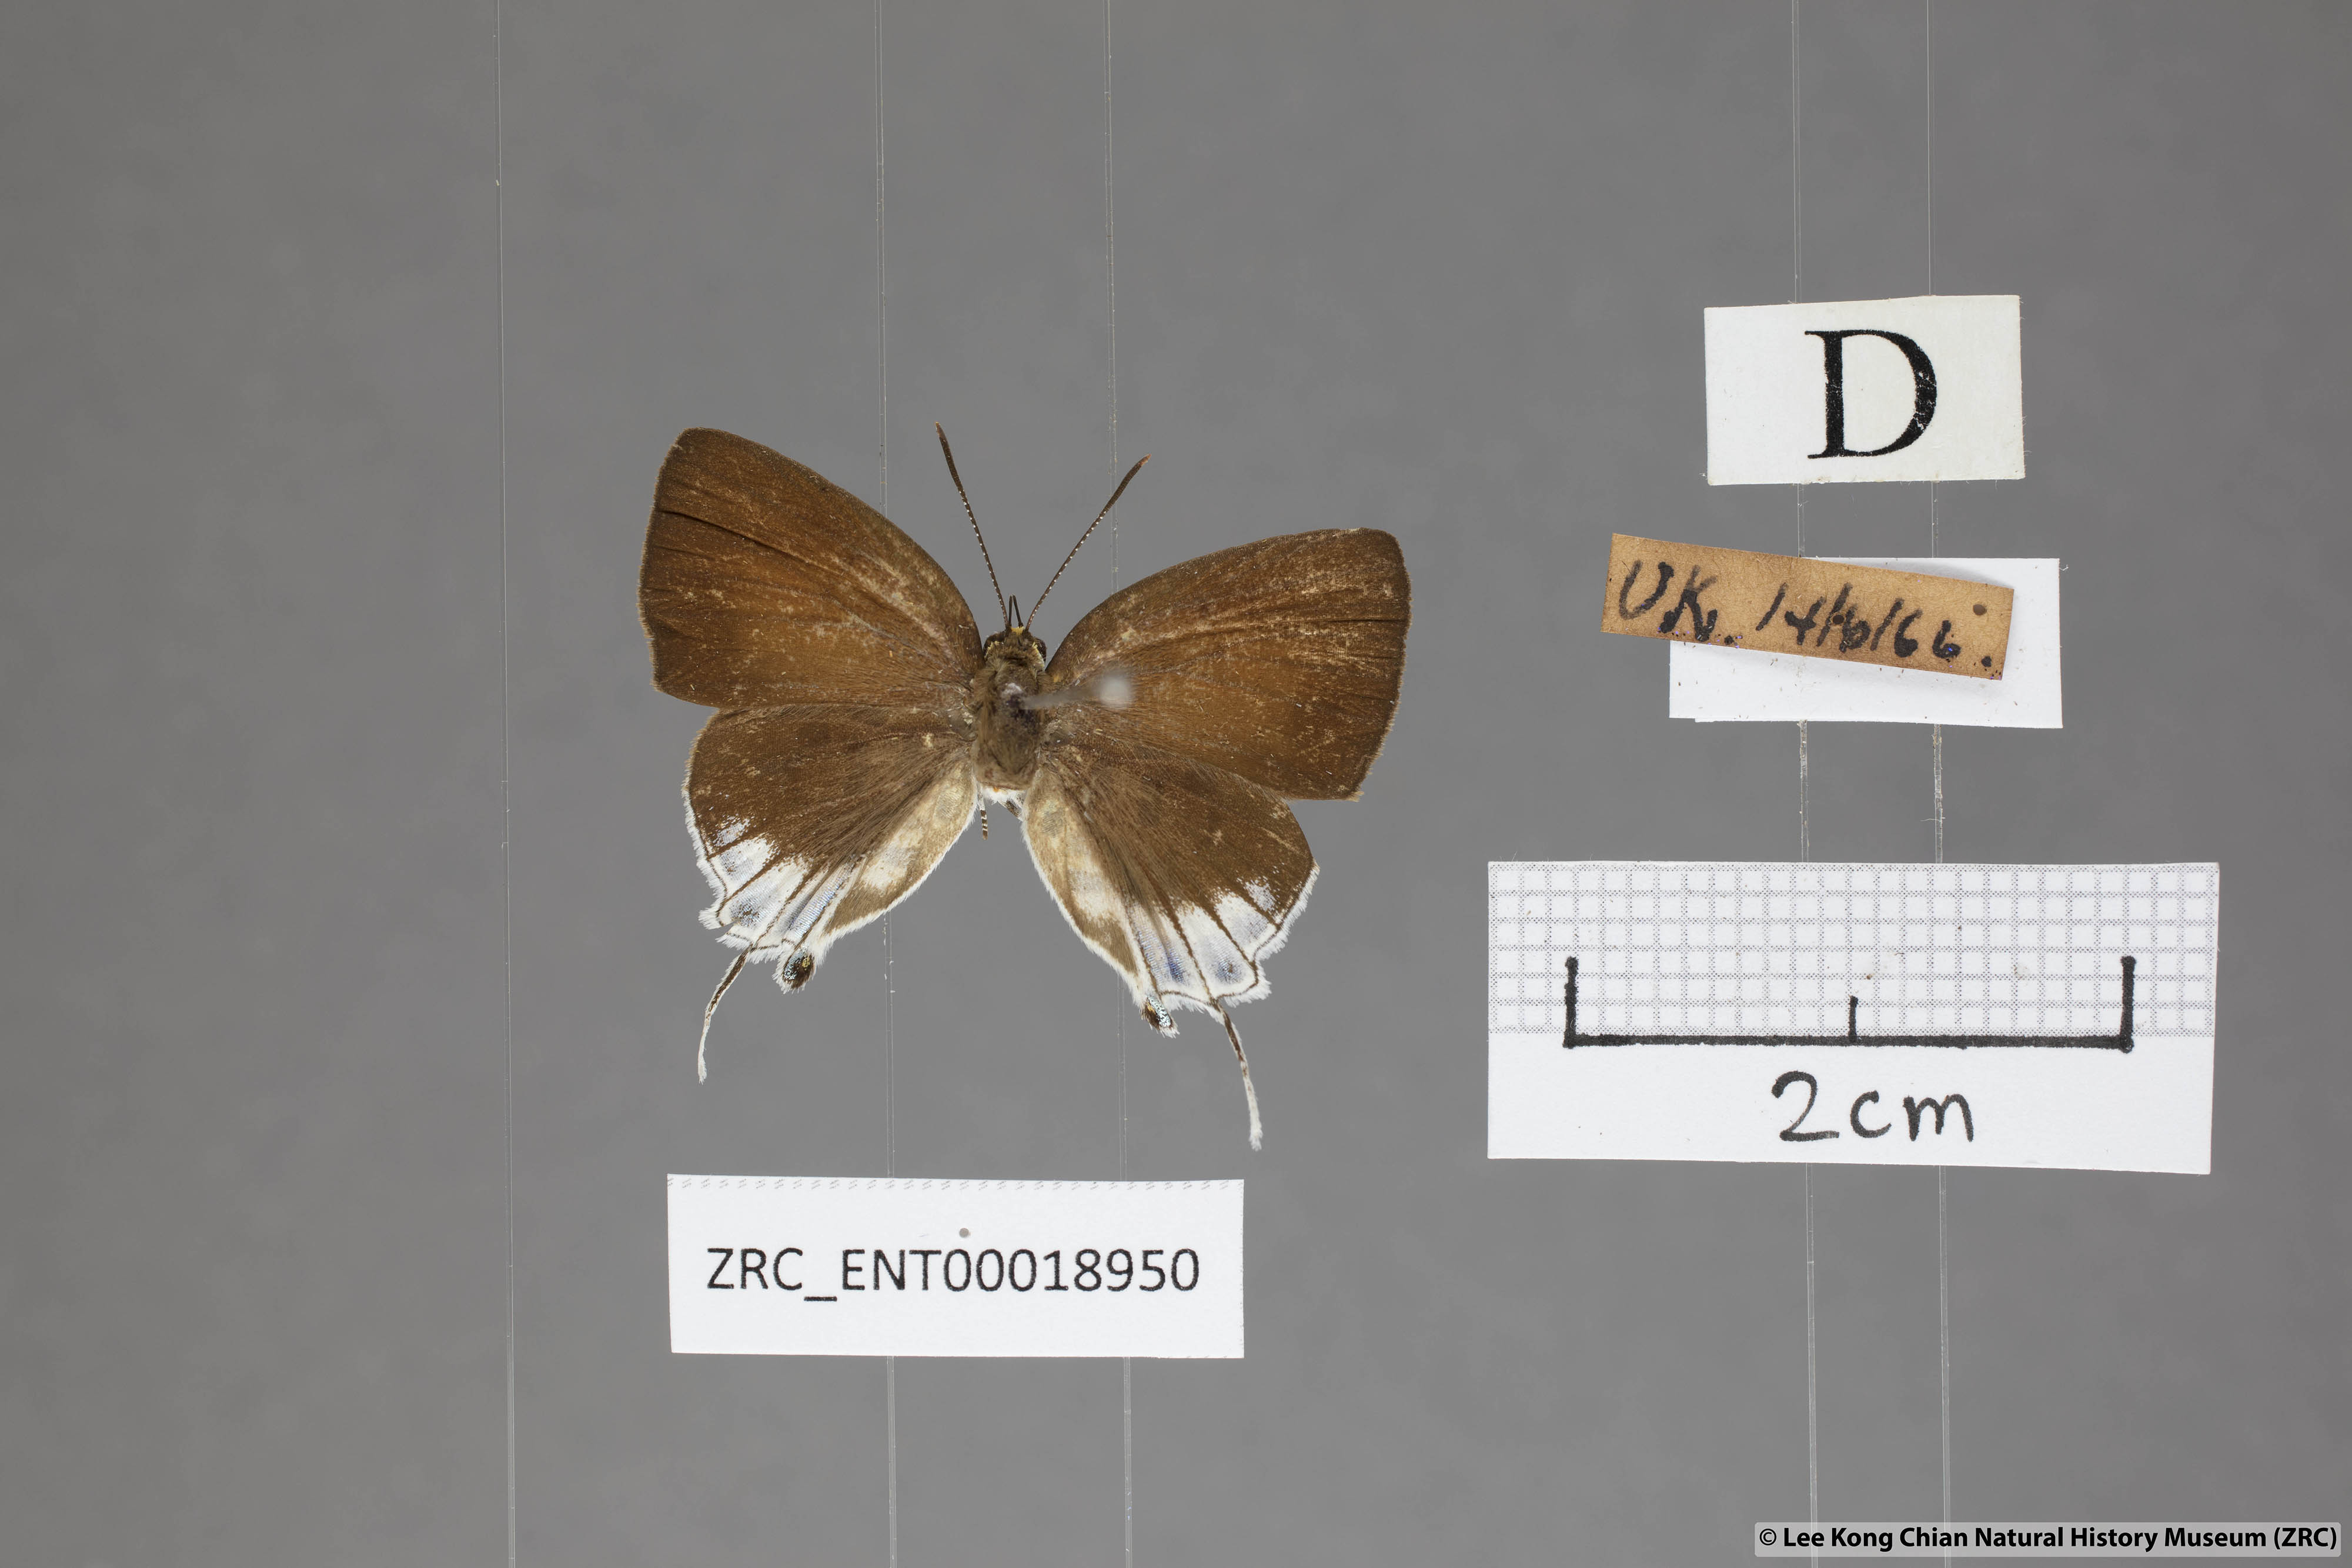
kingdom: Animalia
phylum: Arthropoda
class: Insecta
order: Lepidoptera
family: Lycaenidae
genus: Araotes
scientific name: Araotes lapithis
